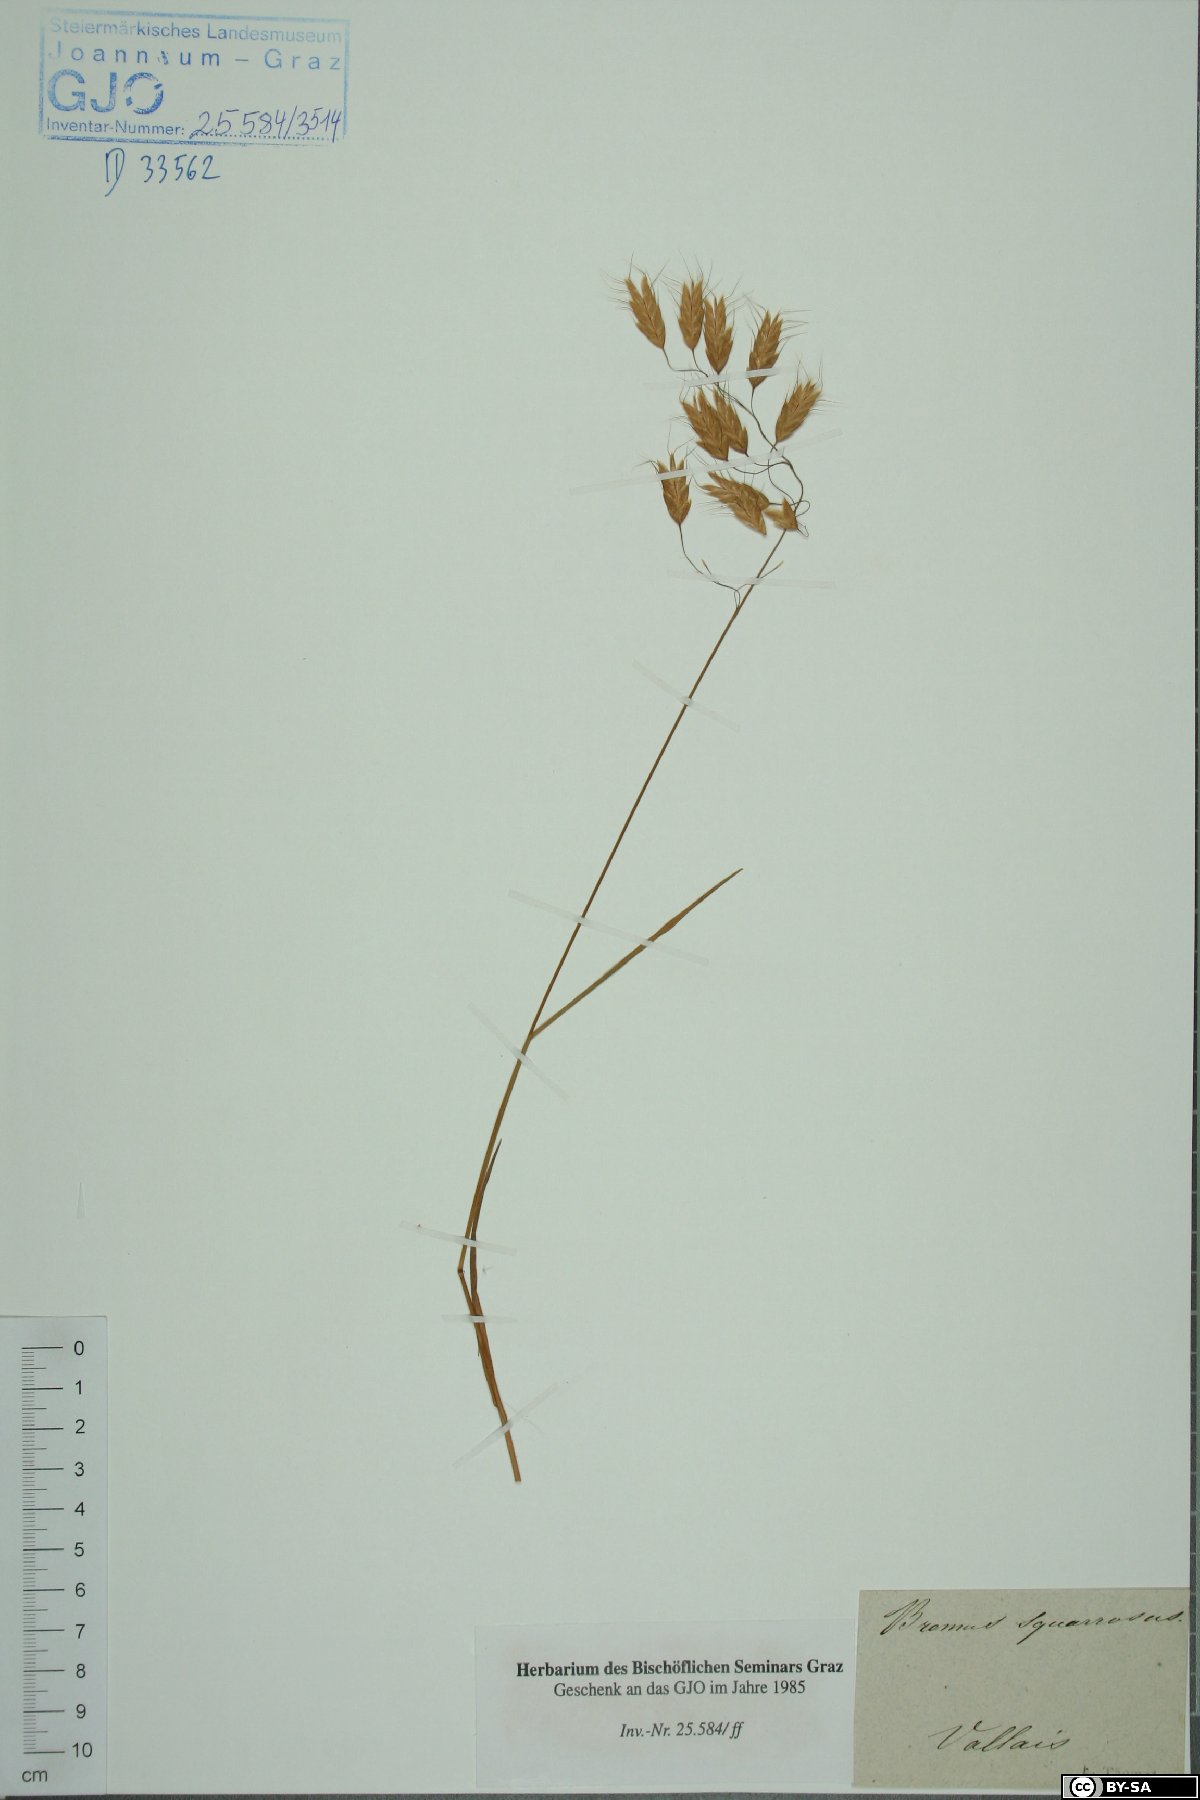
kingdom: Plantae
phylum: Tracheophyta
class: Liliopsida
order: Poales
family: Poaceae
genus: Bromus
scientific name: Bromus squarrosus
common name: Corn brome
